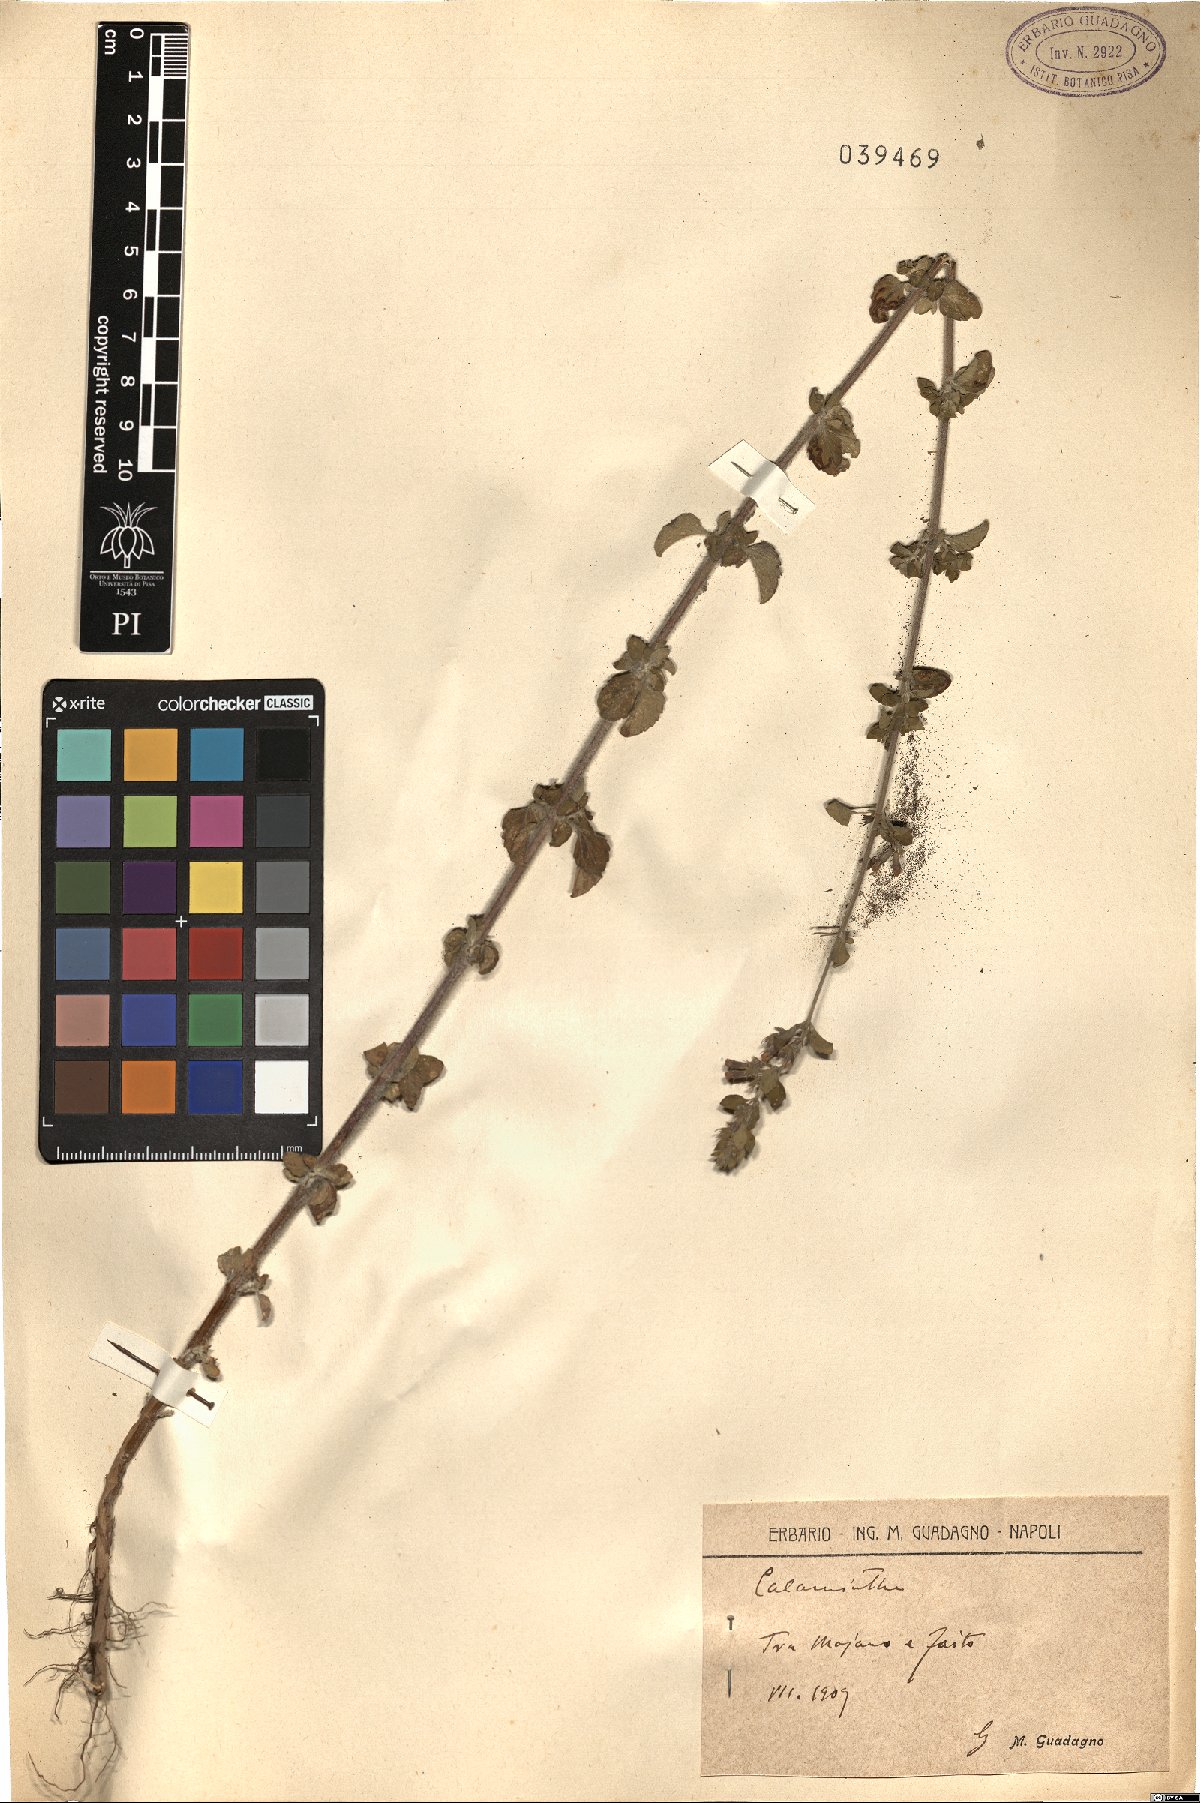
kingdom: Plantae
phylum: Tracheophyta
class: Magnoliopsida
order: Lamiales
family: Lamiaceae
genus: Calamintha
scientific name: Calamintha
